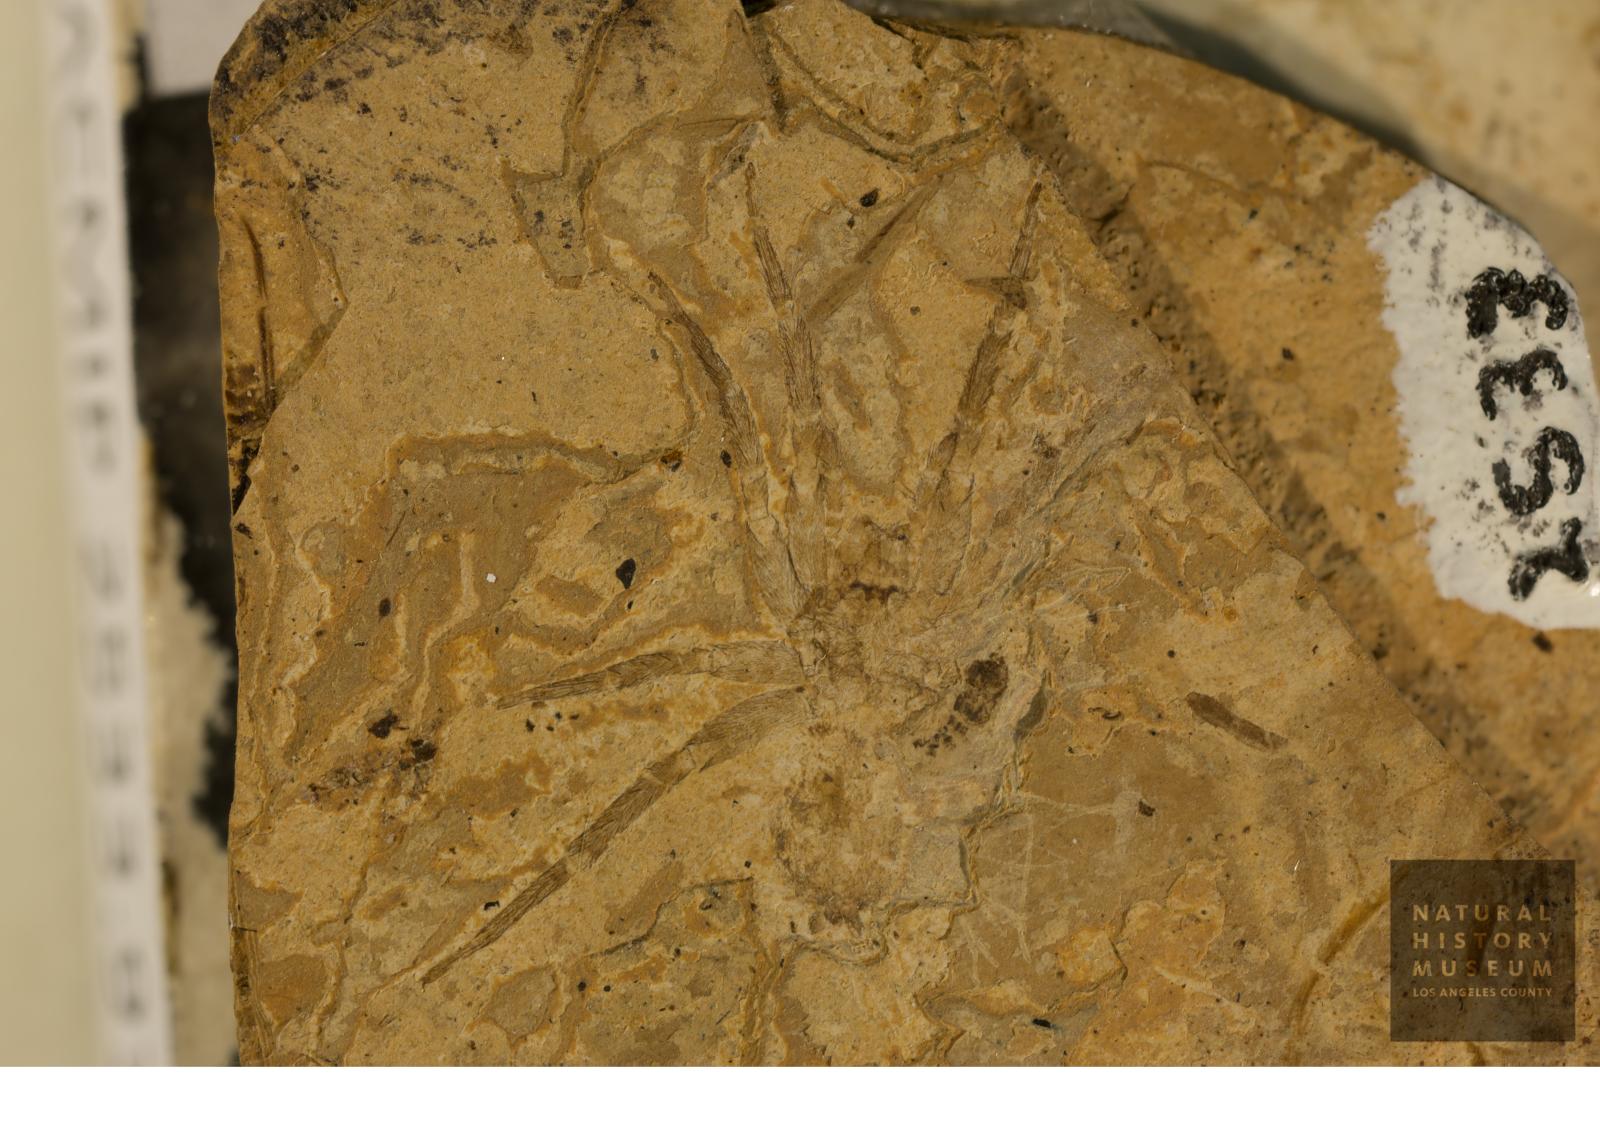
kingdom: Animalia
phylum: Arthropoda
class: Arachnida
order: Araneae
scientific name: Araneae
